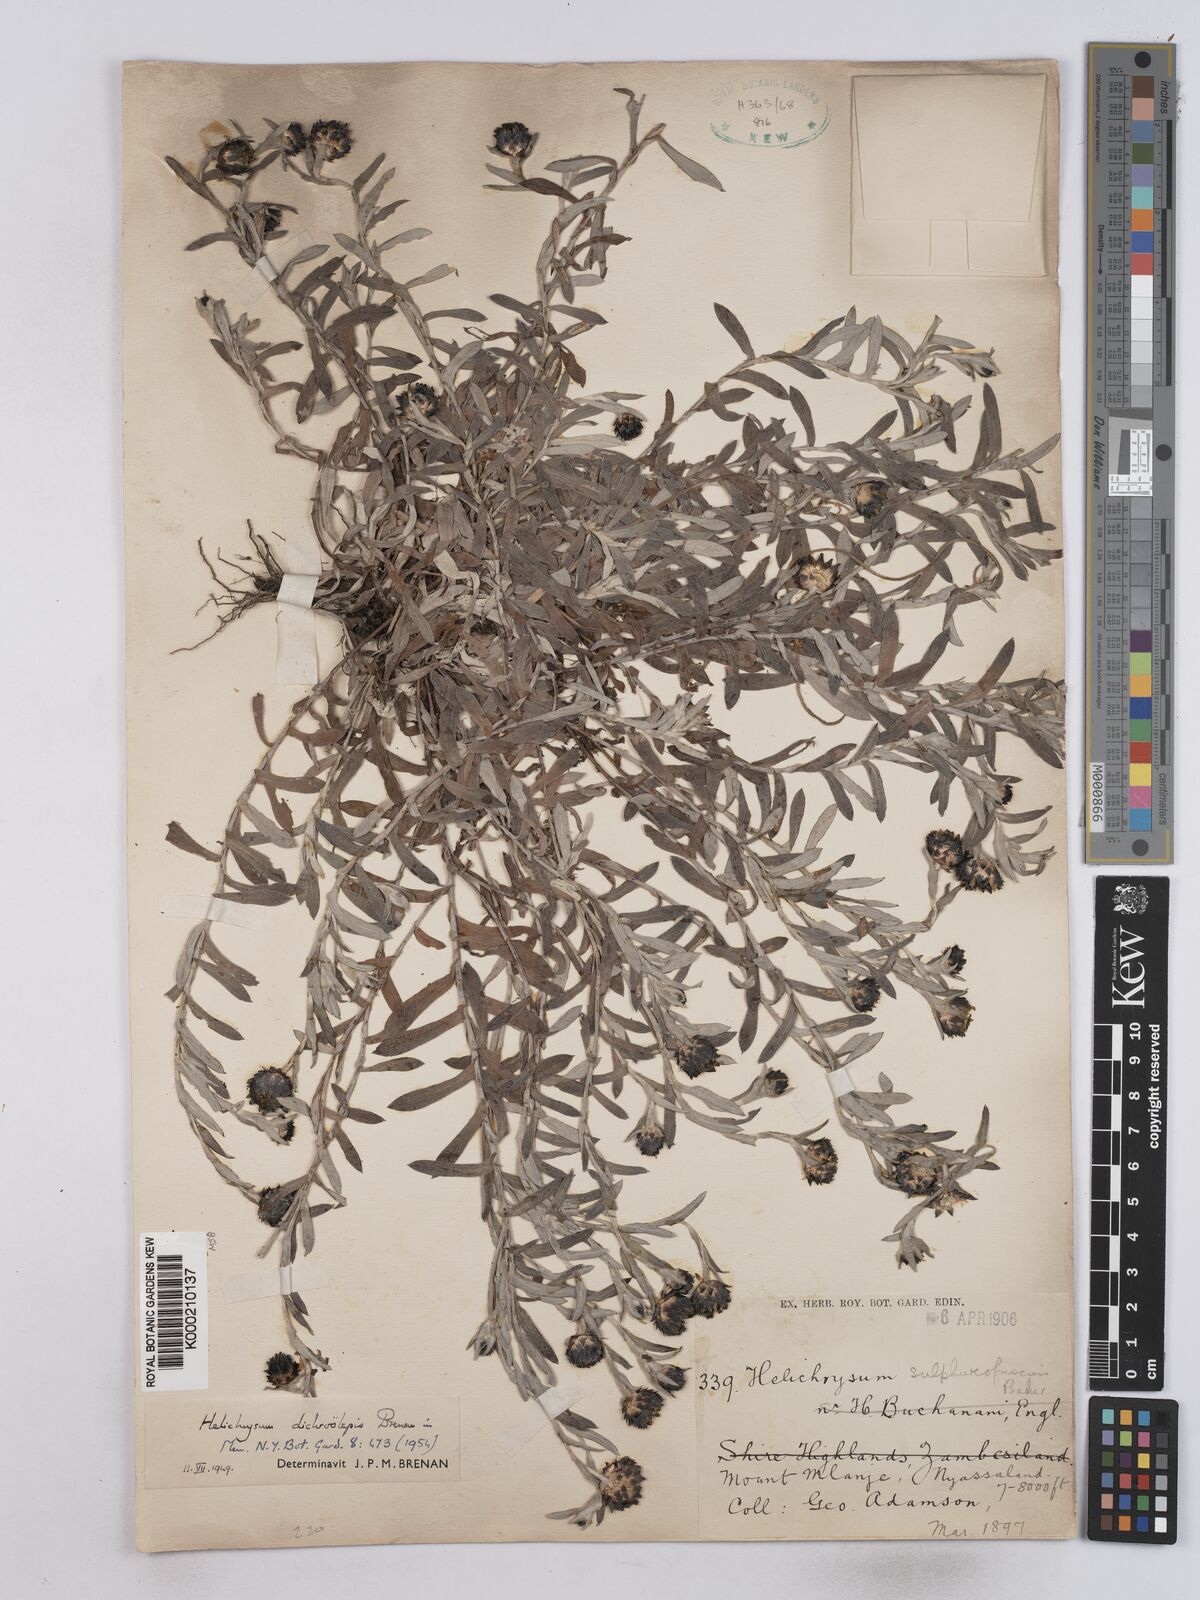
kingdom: Plantae
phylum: Tracheophyta
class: Magnoliopsida
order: Asterales
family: Asteraceae
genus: Helichrysum
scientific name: Helichrysum
